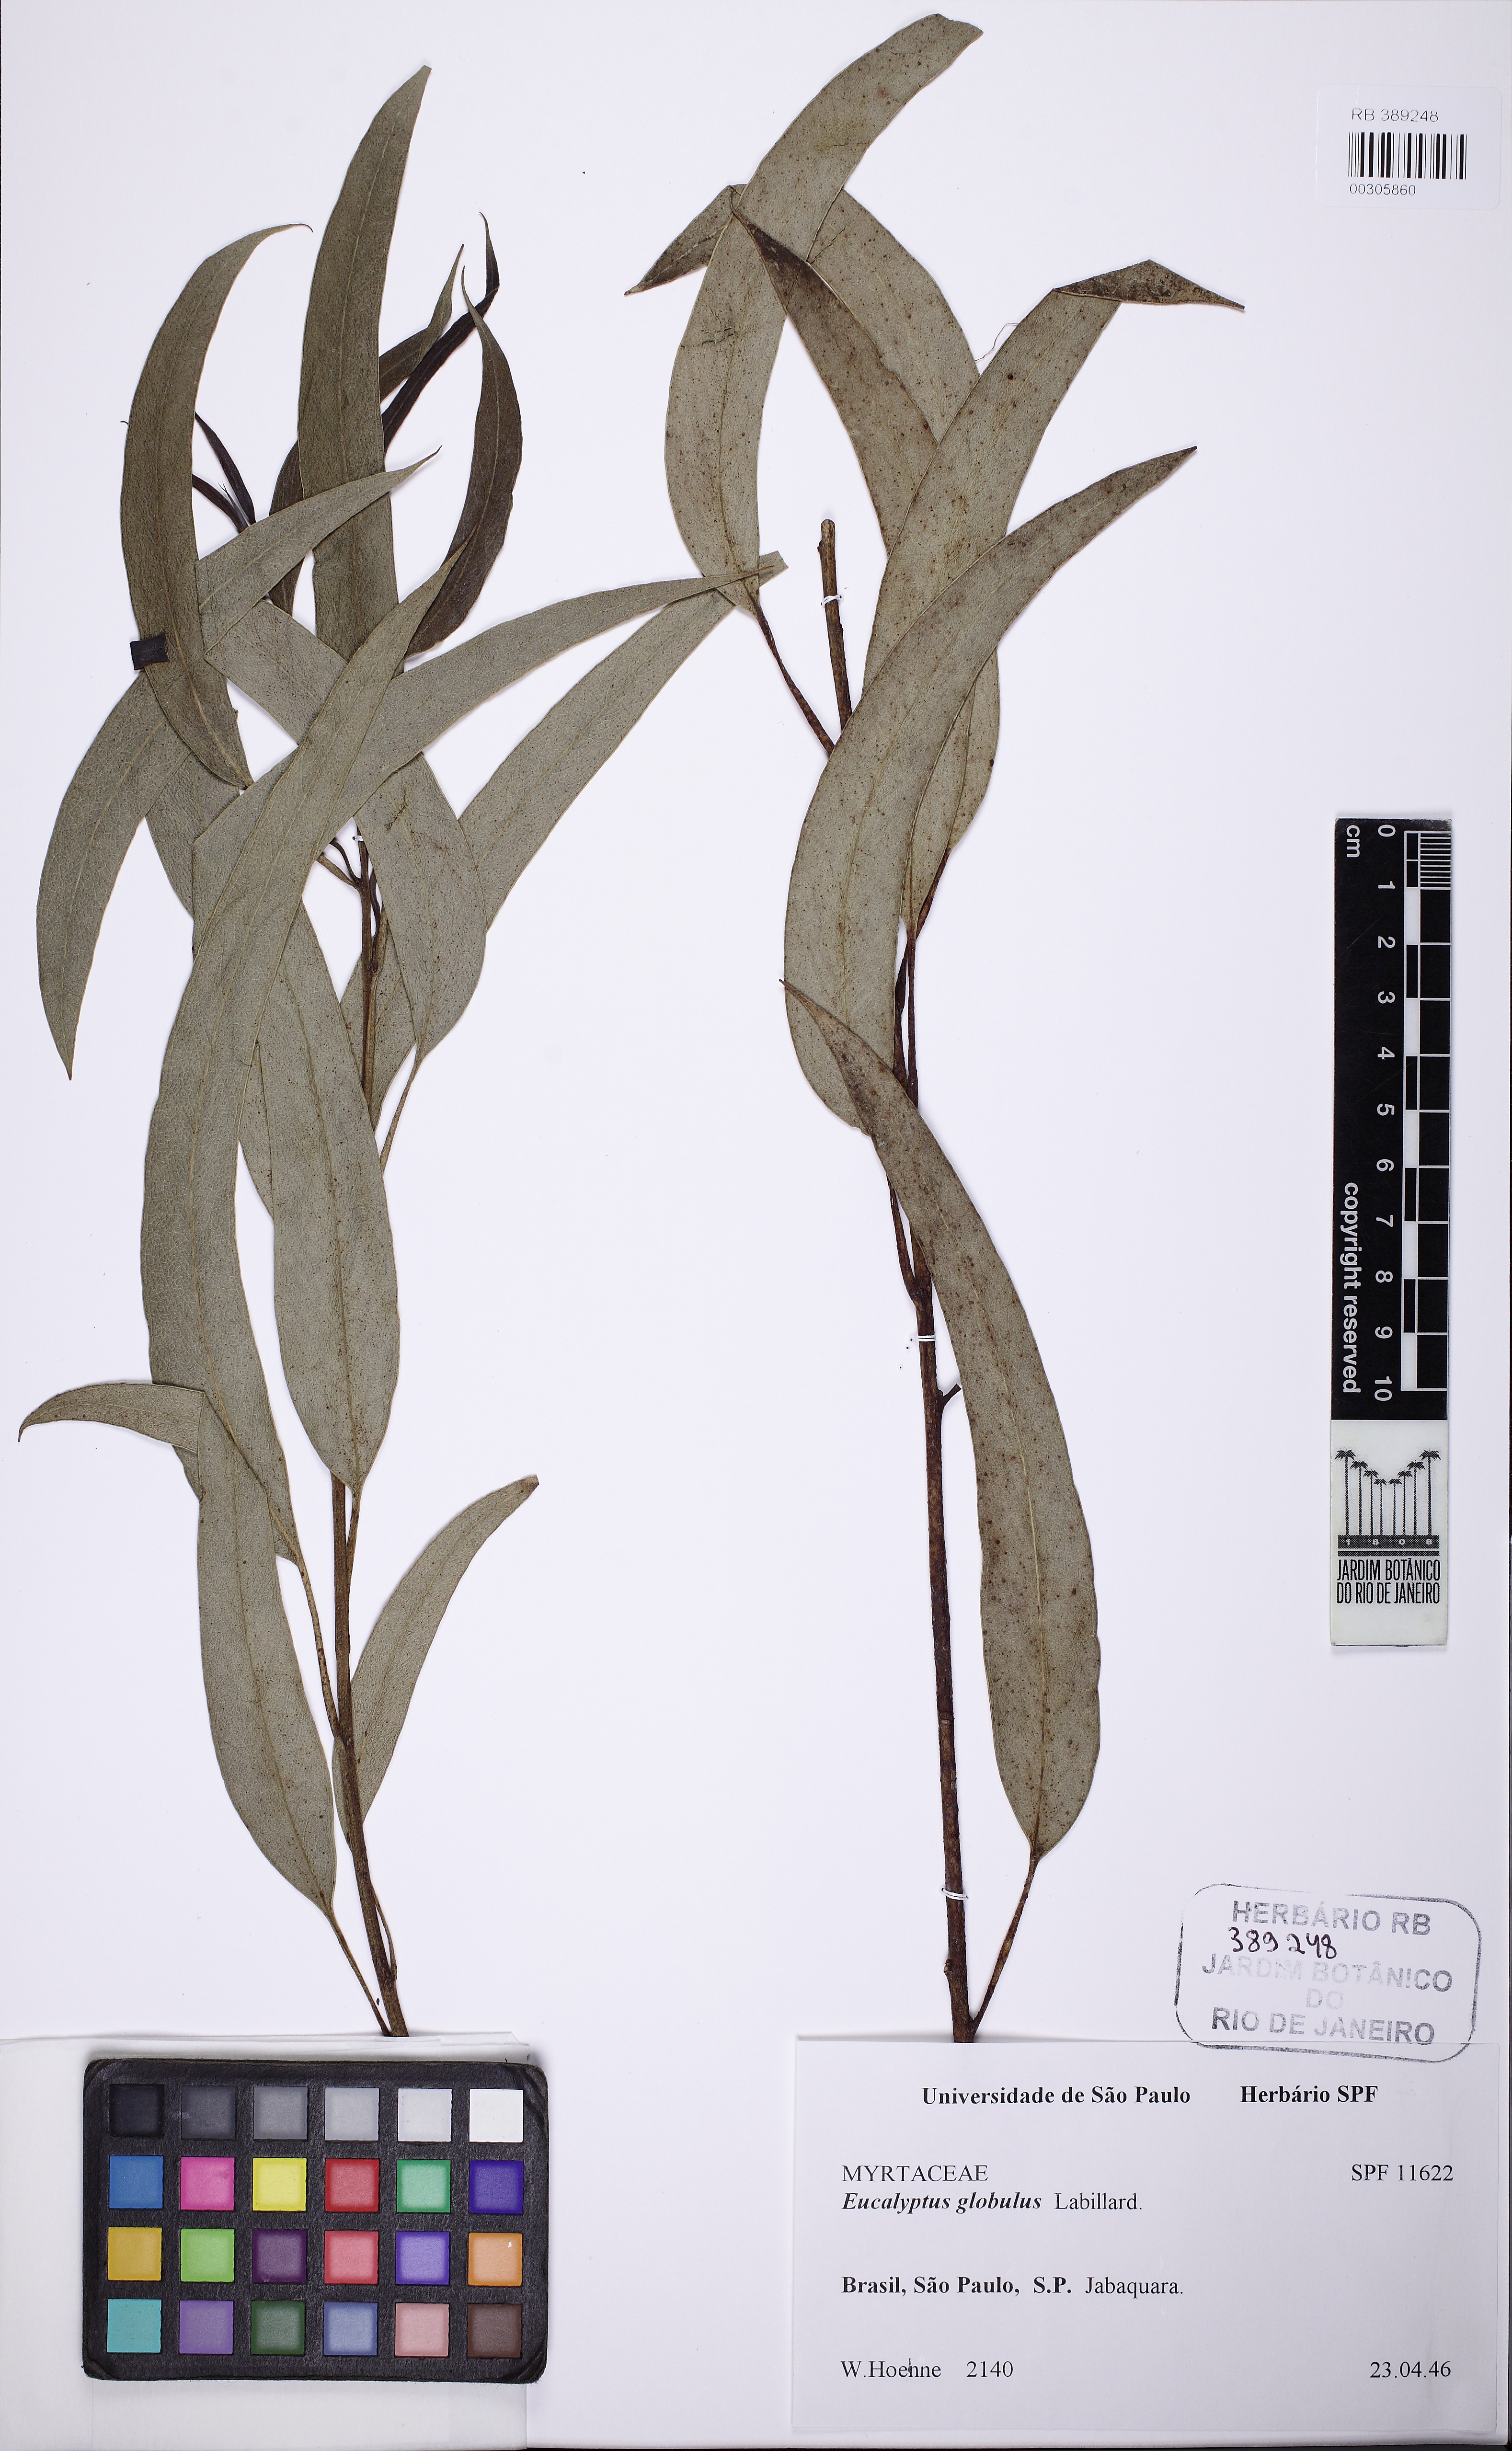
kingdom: Plantae
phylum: Tracheophyta
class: Magnoliopsida
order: Myrtales
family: Myrtaceae
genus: Eucalyptus
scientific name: Eucalyptus globulus
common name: Southern blue-gum
